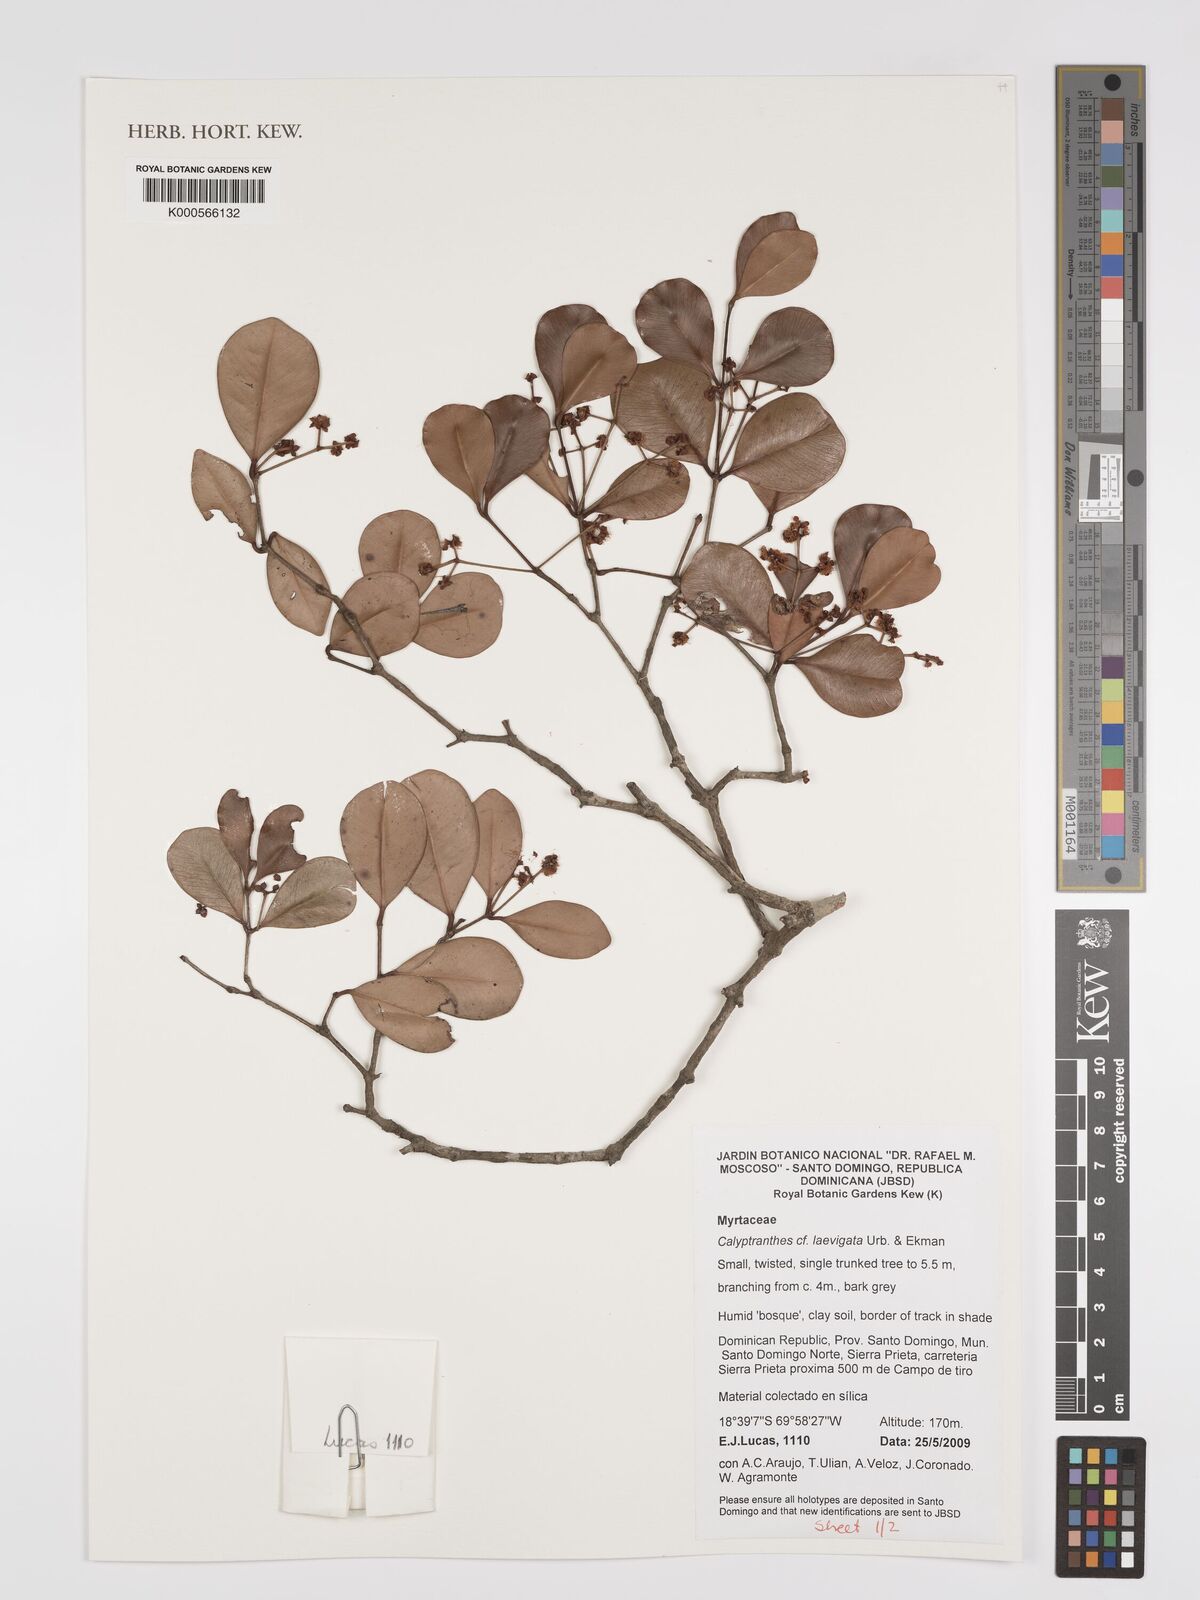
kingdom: Plantae
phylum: Tracheophyta
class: Magnoliopsida
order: Myrtales
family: Myrtaceae
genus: Myrcia
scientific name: Myrcia neolaevigata
